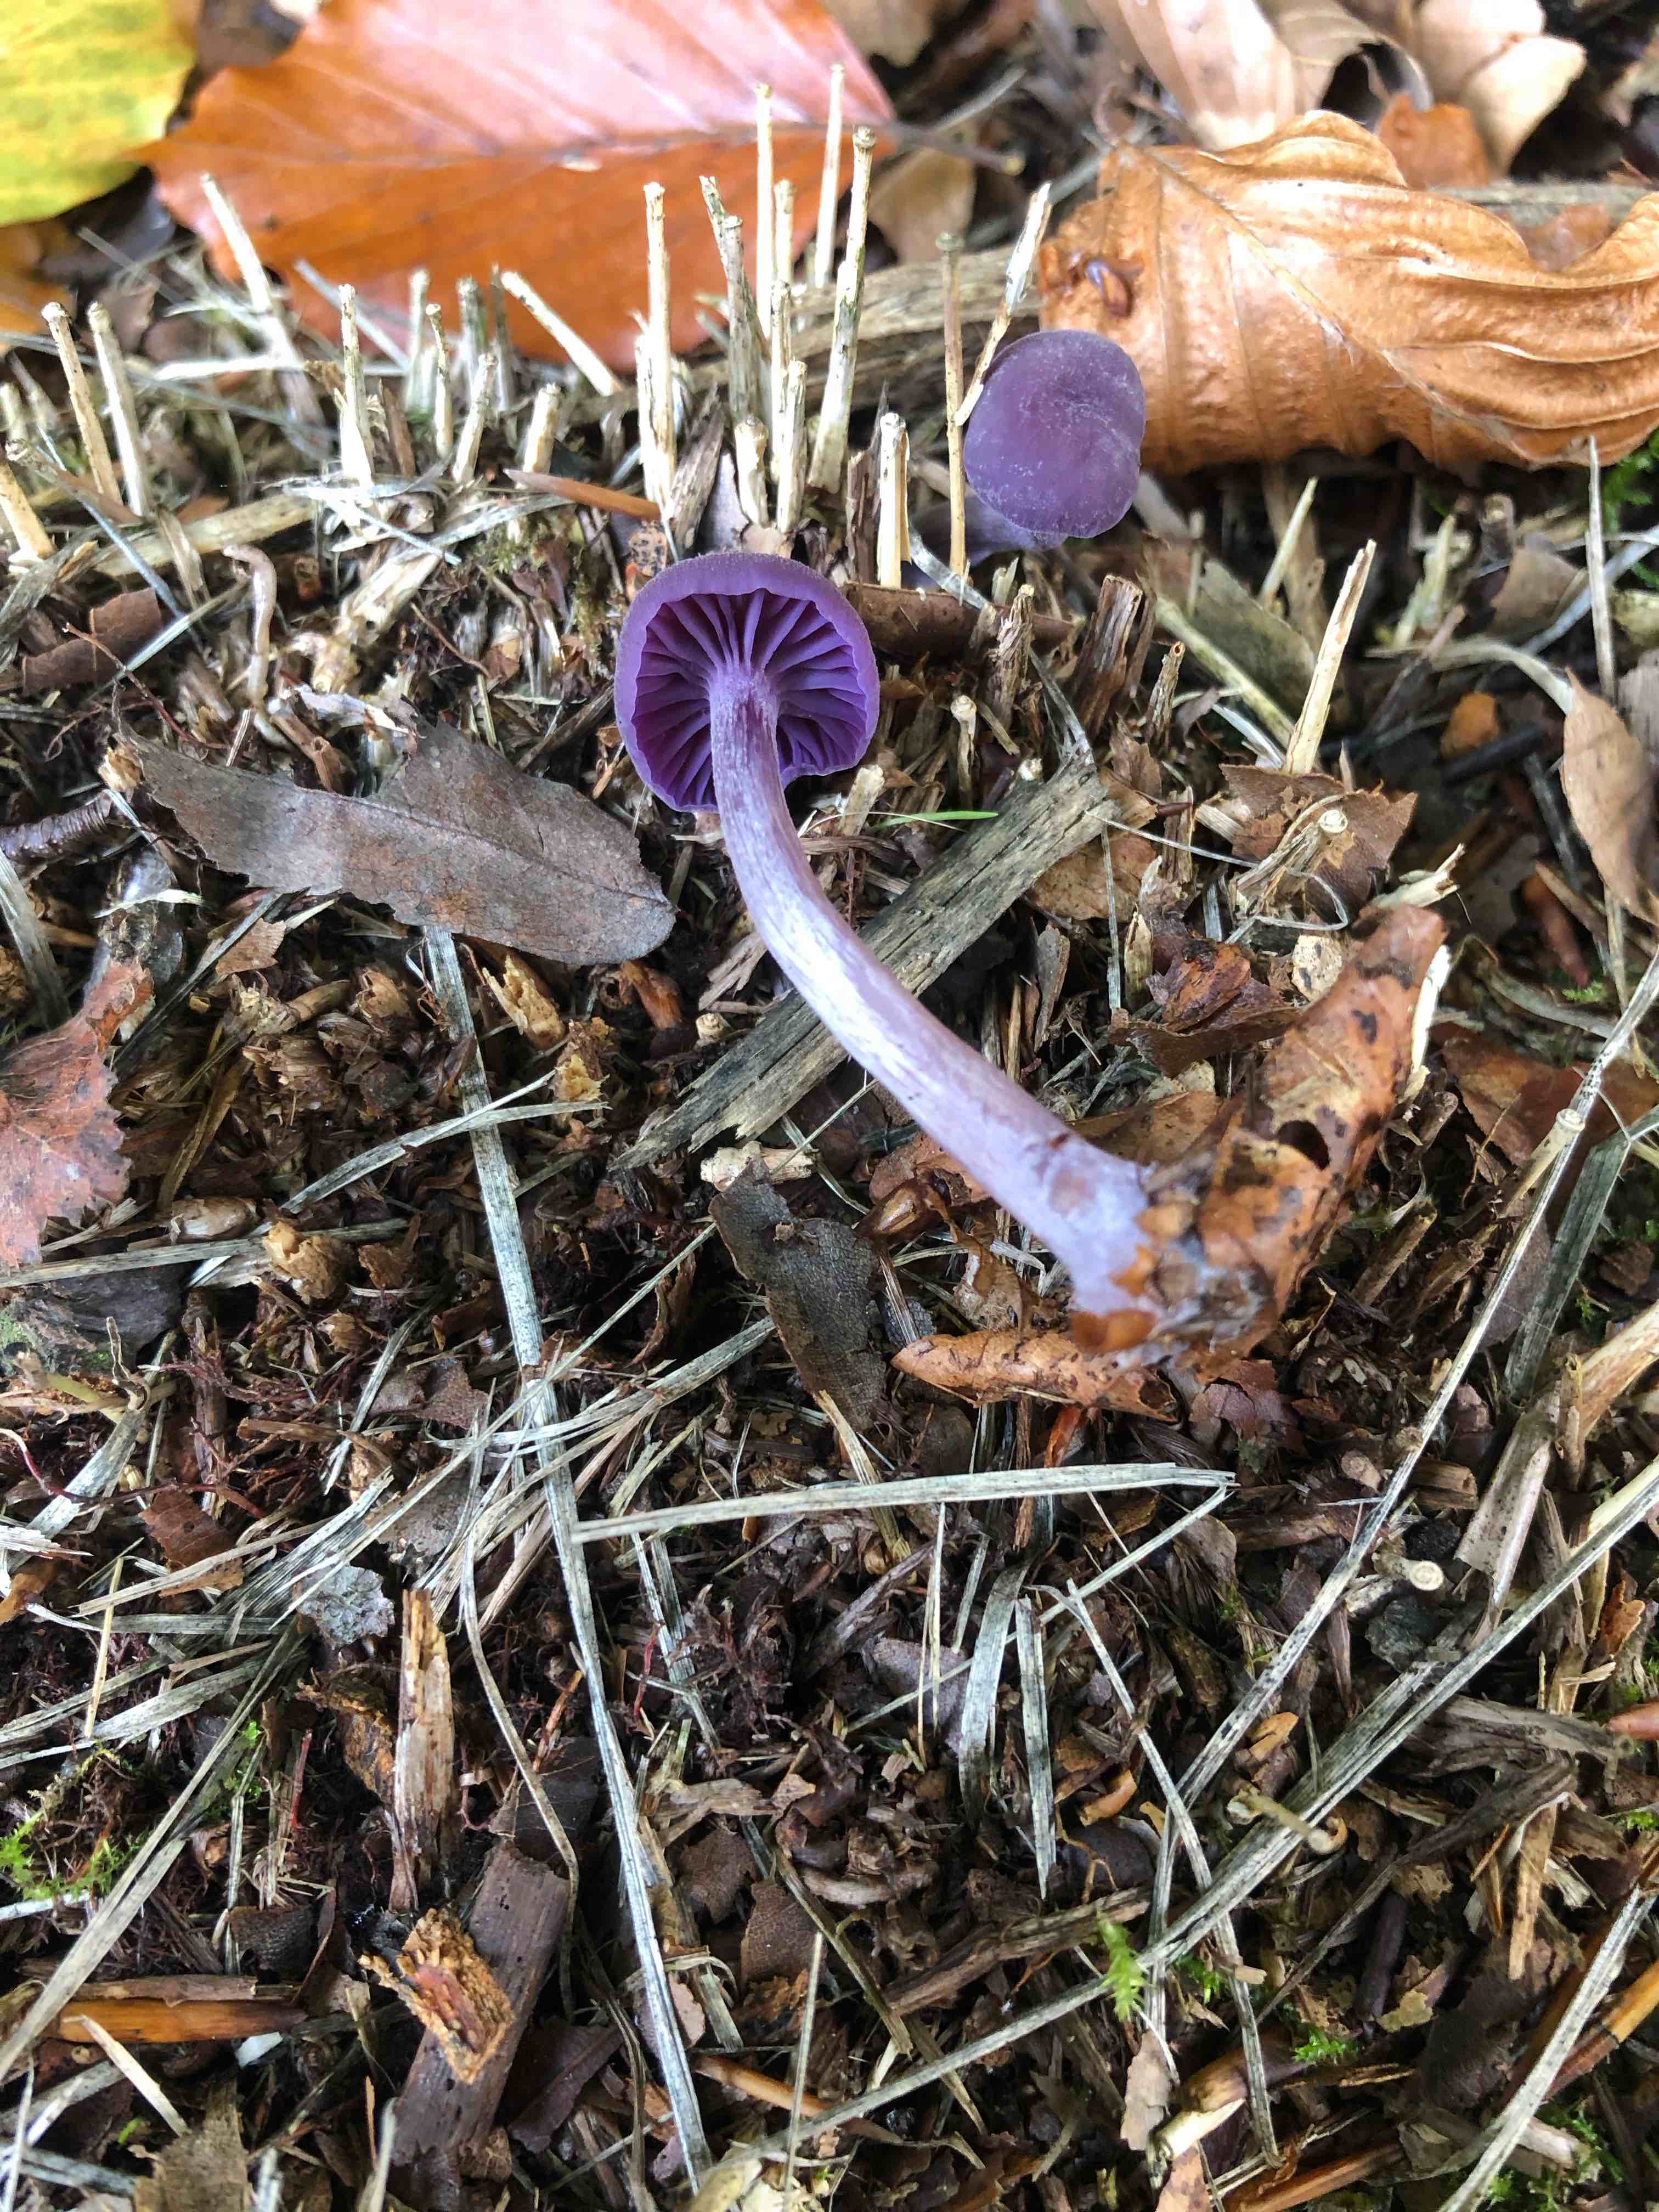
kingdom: Fungi
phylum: Basidiomycota
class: Agaricomycetes
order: Agaricales
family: Hydnangiaceae
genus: Laccaria
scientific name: Laccaria amethystina
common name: violet ametysthat
